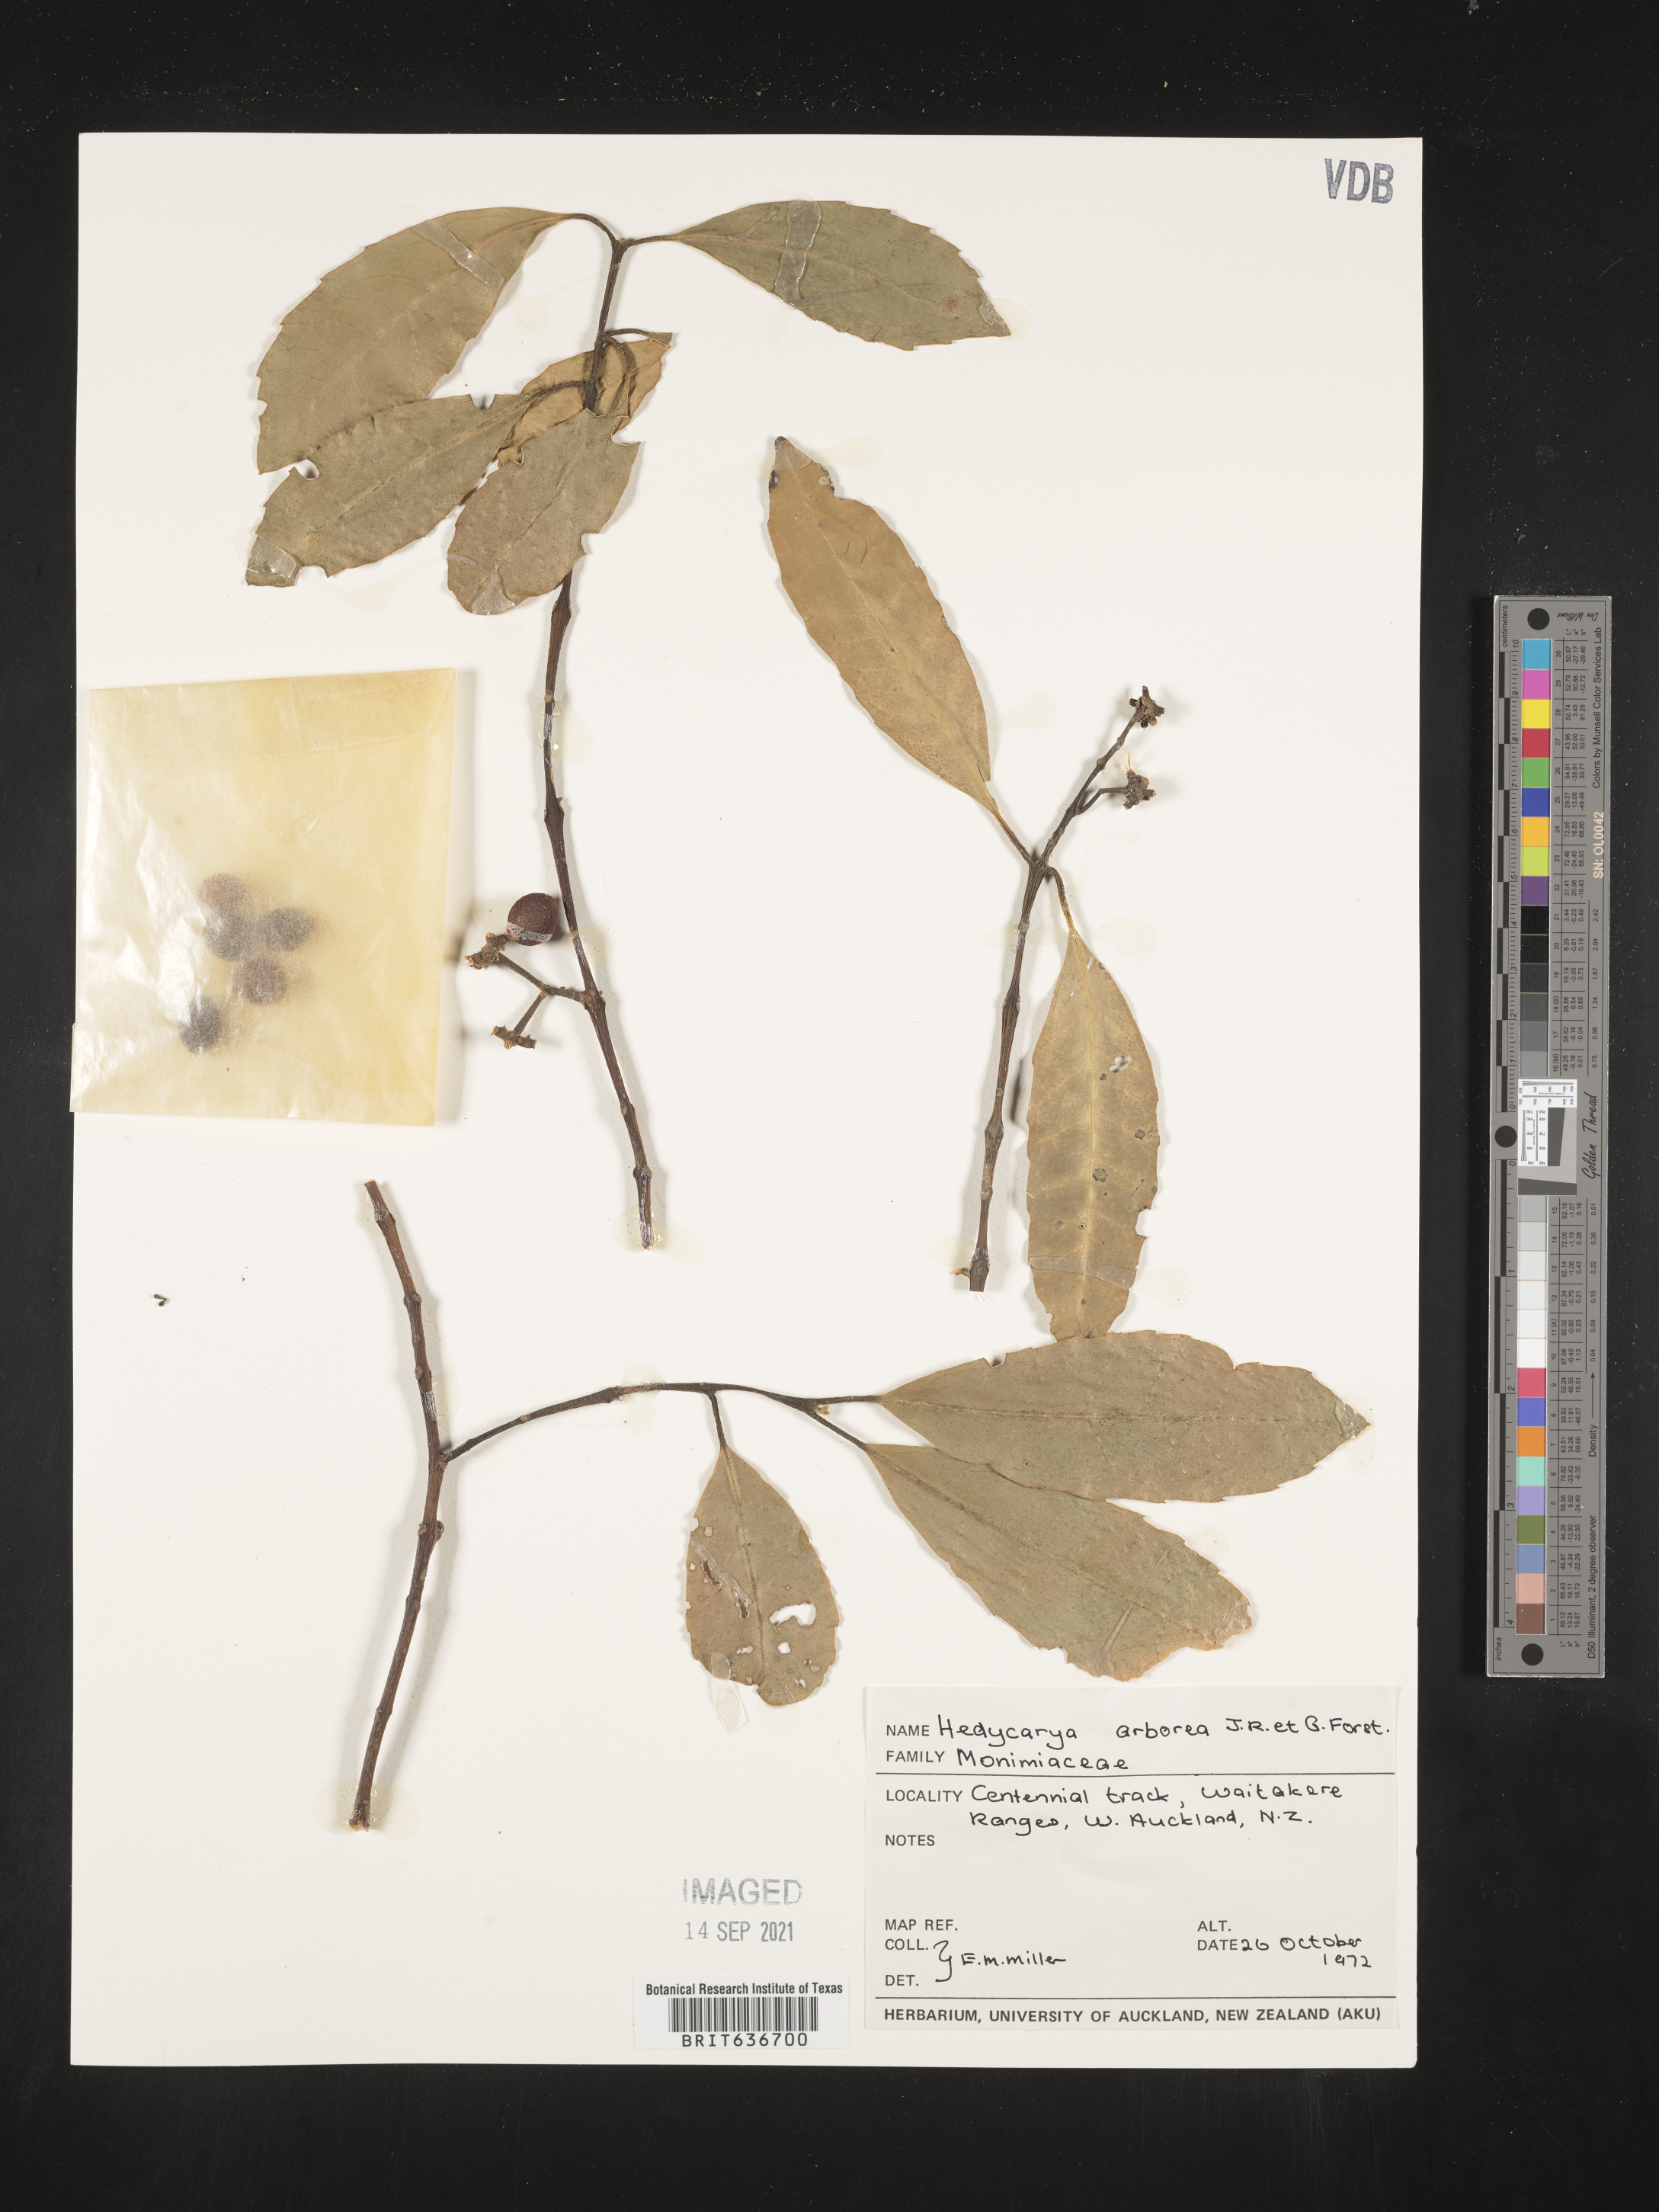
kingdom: Plantae
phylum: Tracheophyta
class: Magnoliopsida
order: Laurales
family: Monimiaceae
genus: Hedycarya
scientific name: Hedycarya
